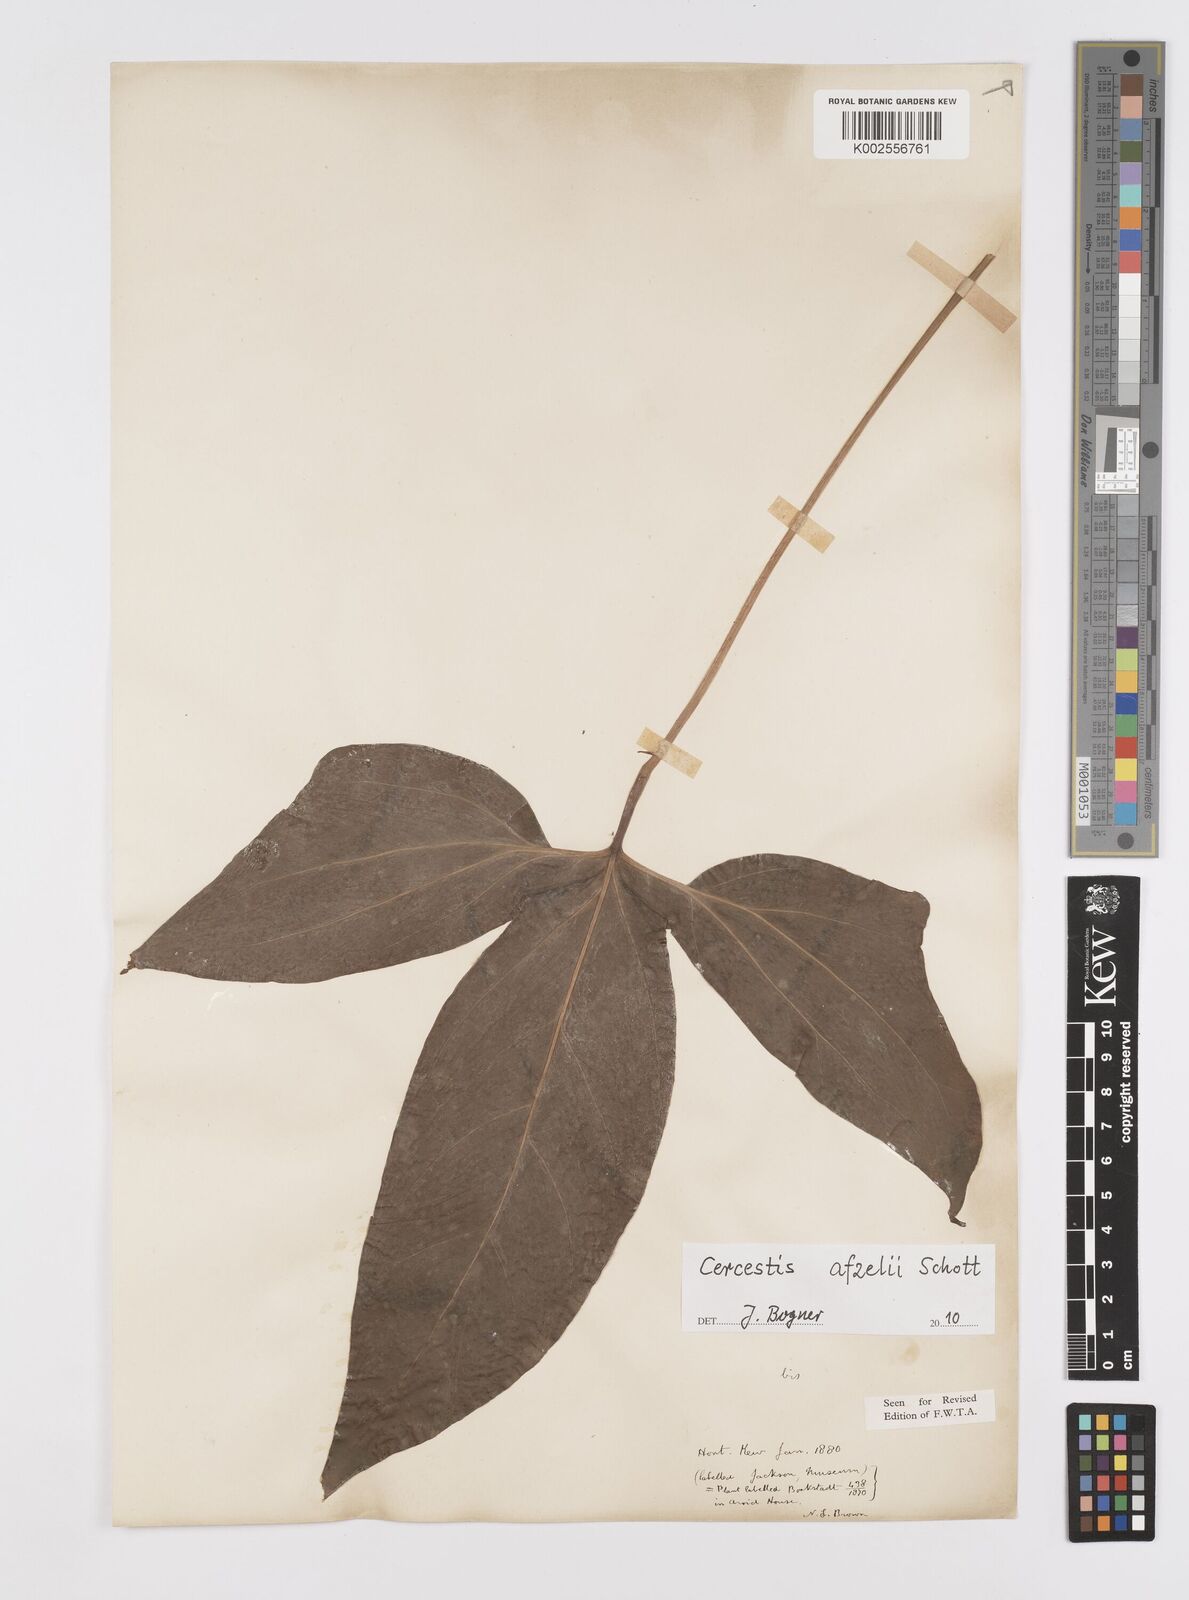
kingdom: Plantae
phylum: Tracheophyta
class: Liliopsida
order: Alismatales
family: Araceae
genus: Cercestis
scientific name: Cercestis afzelii
